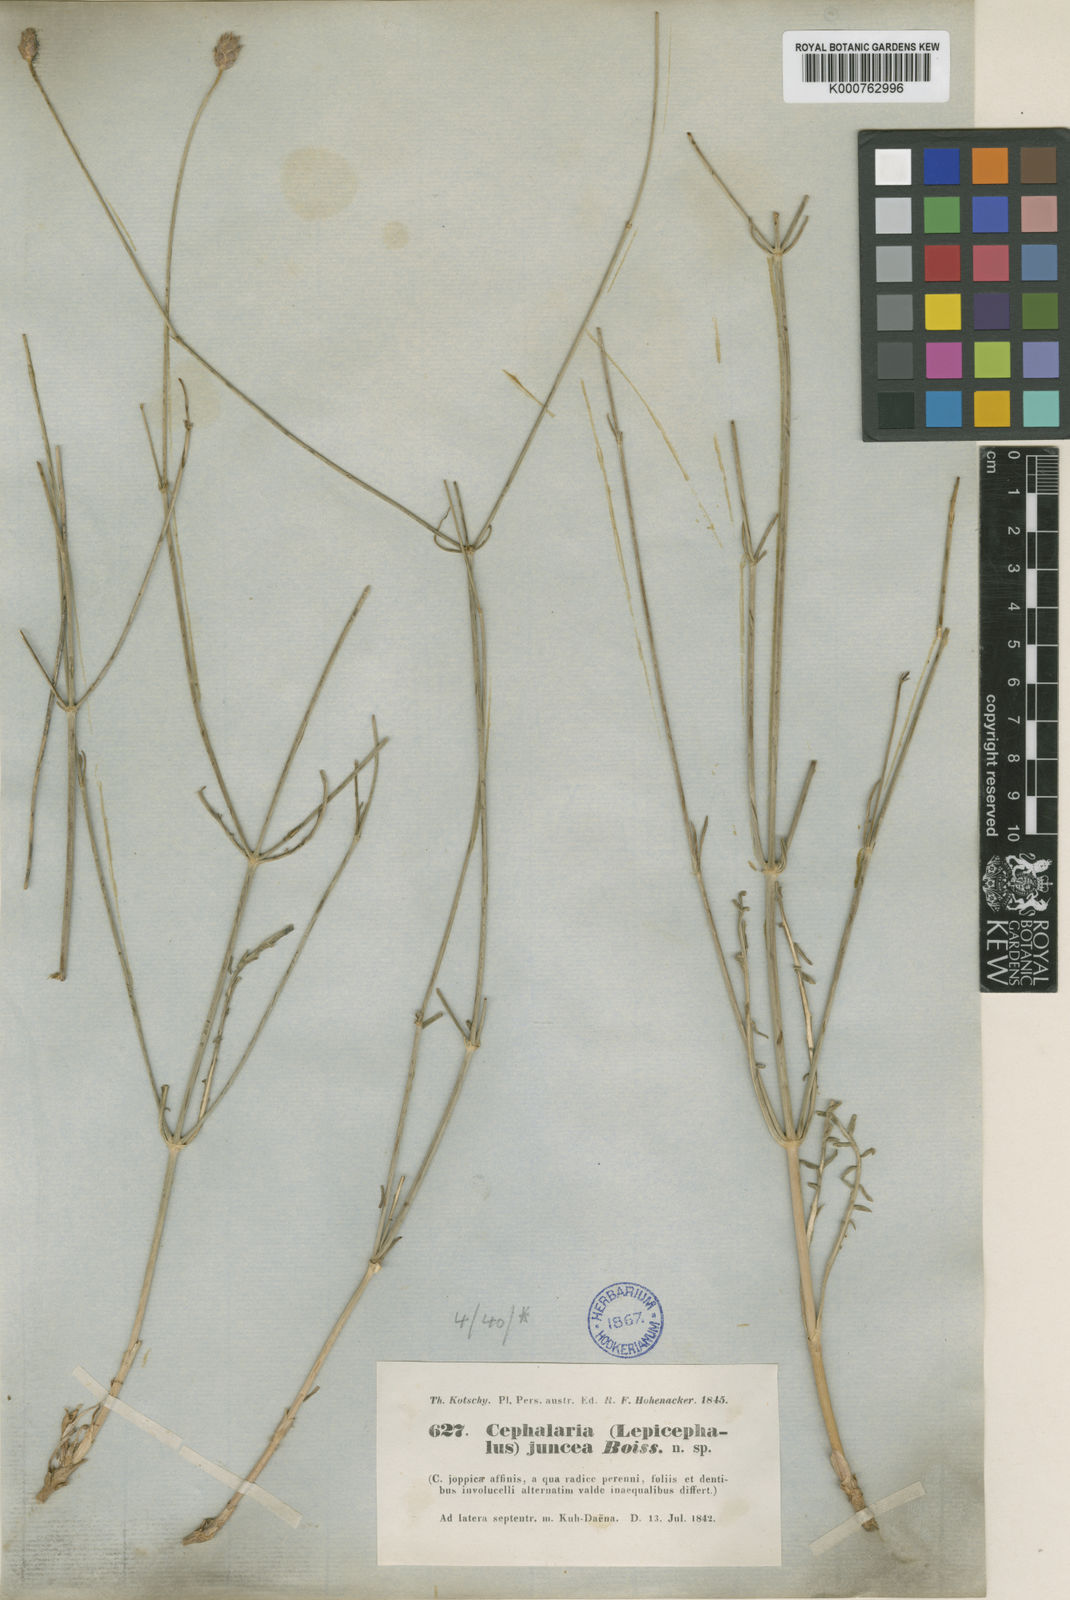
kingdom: Plantae
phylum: Tracheophyta
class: Magnoliopsida
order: Dipsacales
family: Caprifoliaceae
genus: Cephalaria
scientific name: Cephalaria juncea
